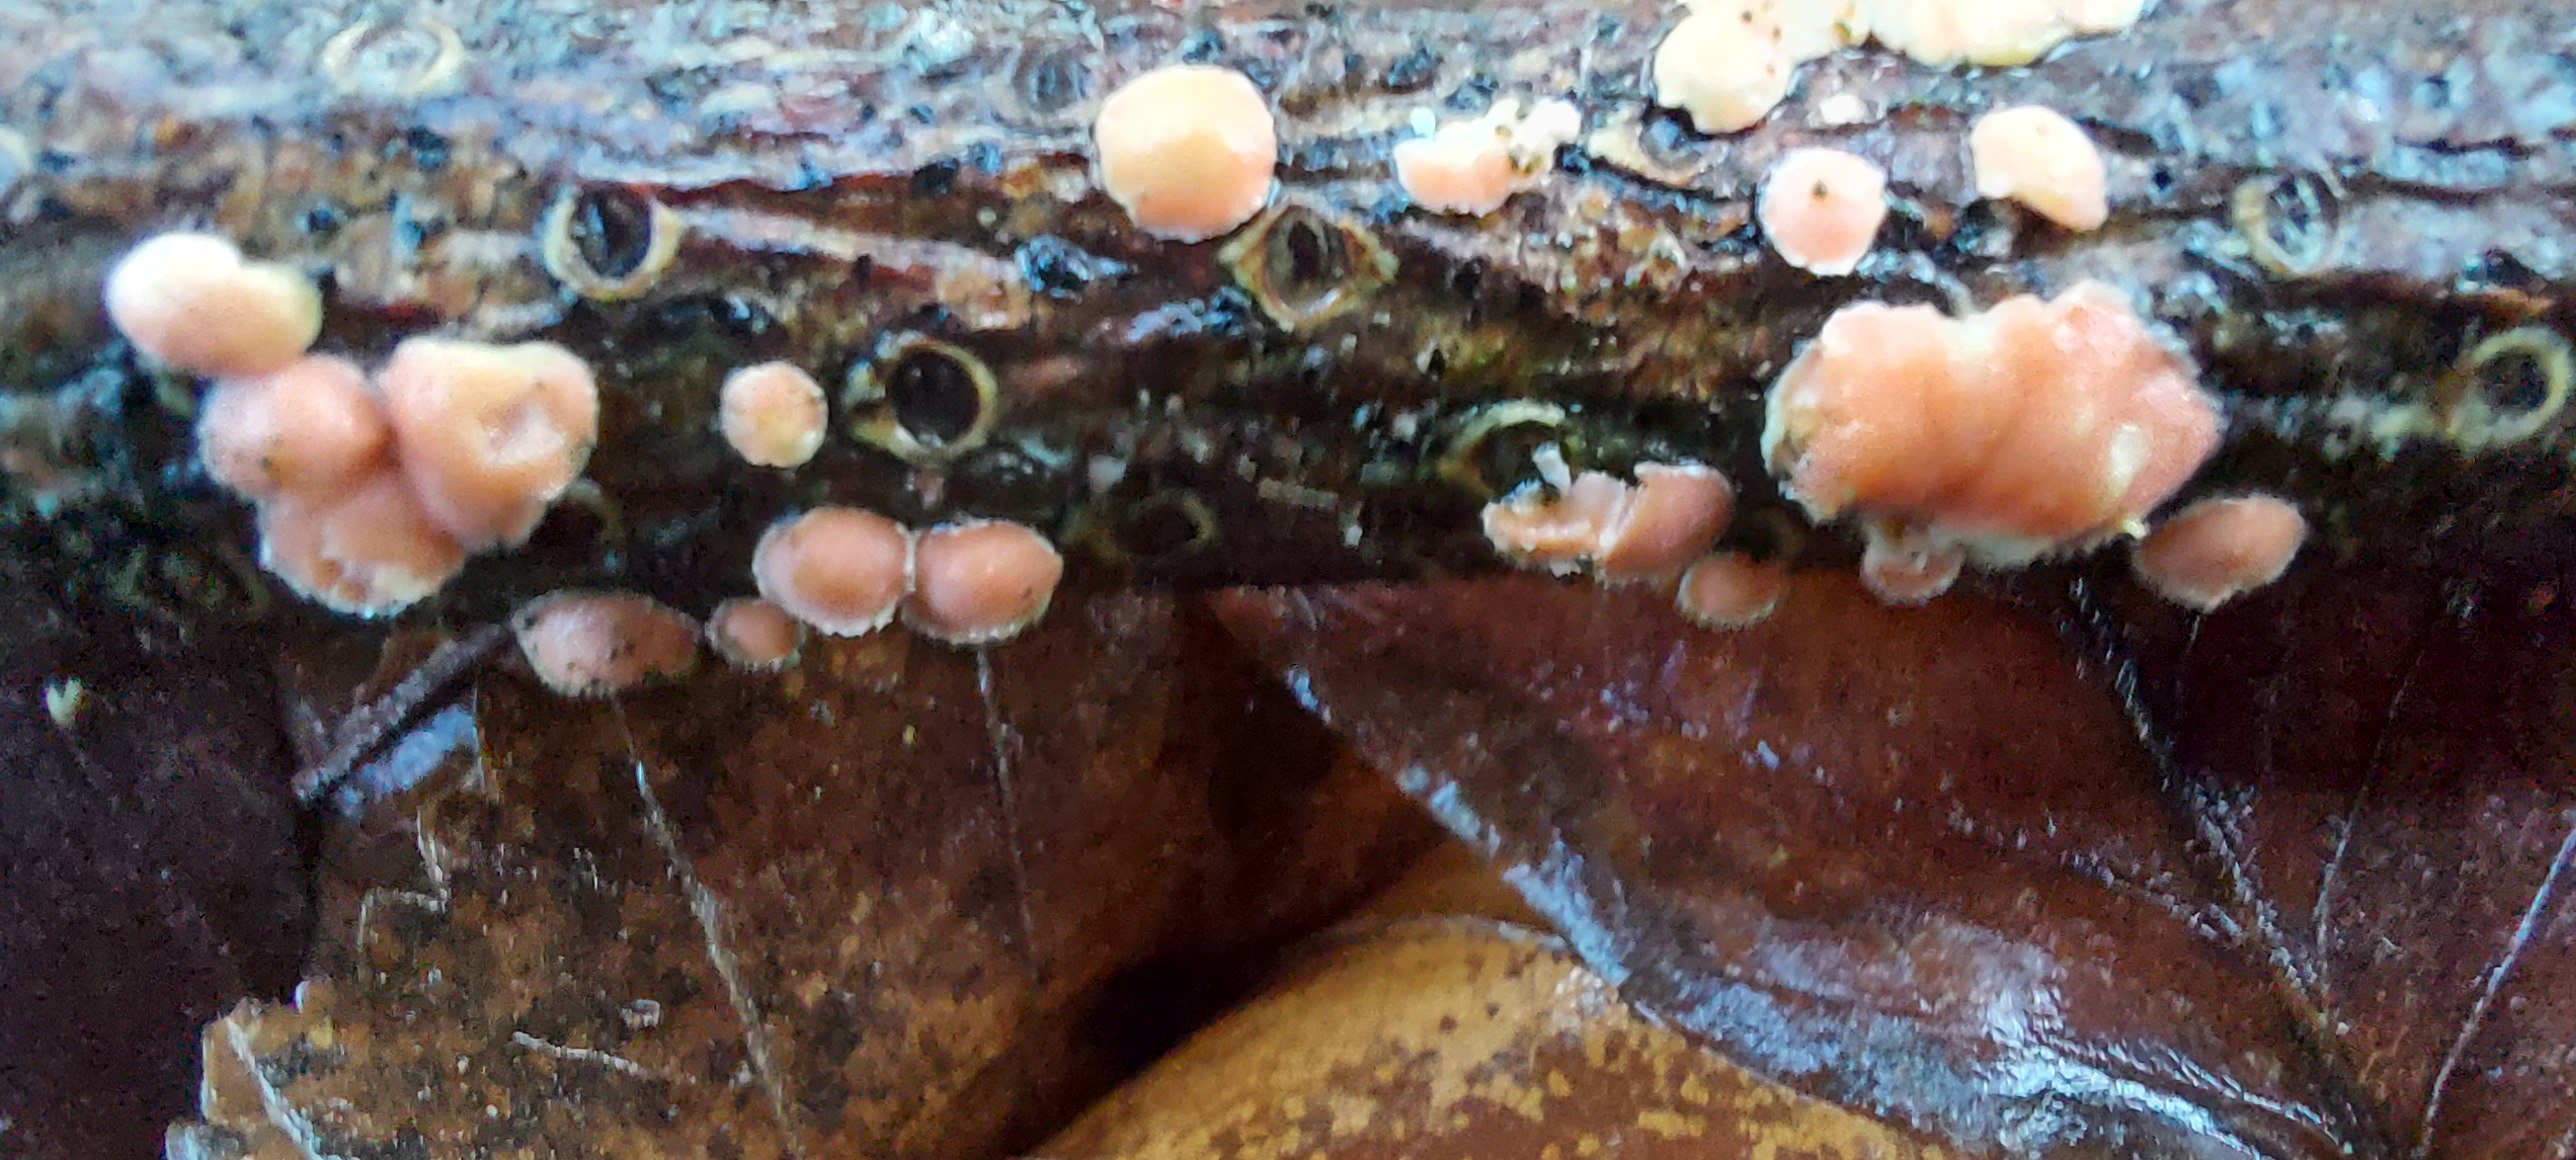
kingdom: Fungi
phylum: Basidiomycota
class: Agaricomycetes
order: Russulales
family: Stereaceae
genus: Aleurodiscus
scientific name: Aleurodiscus amorphus
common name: orange skiveskorpe
